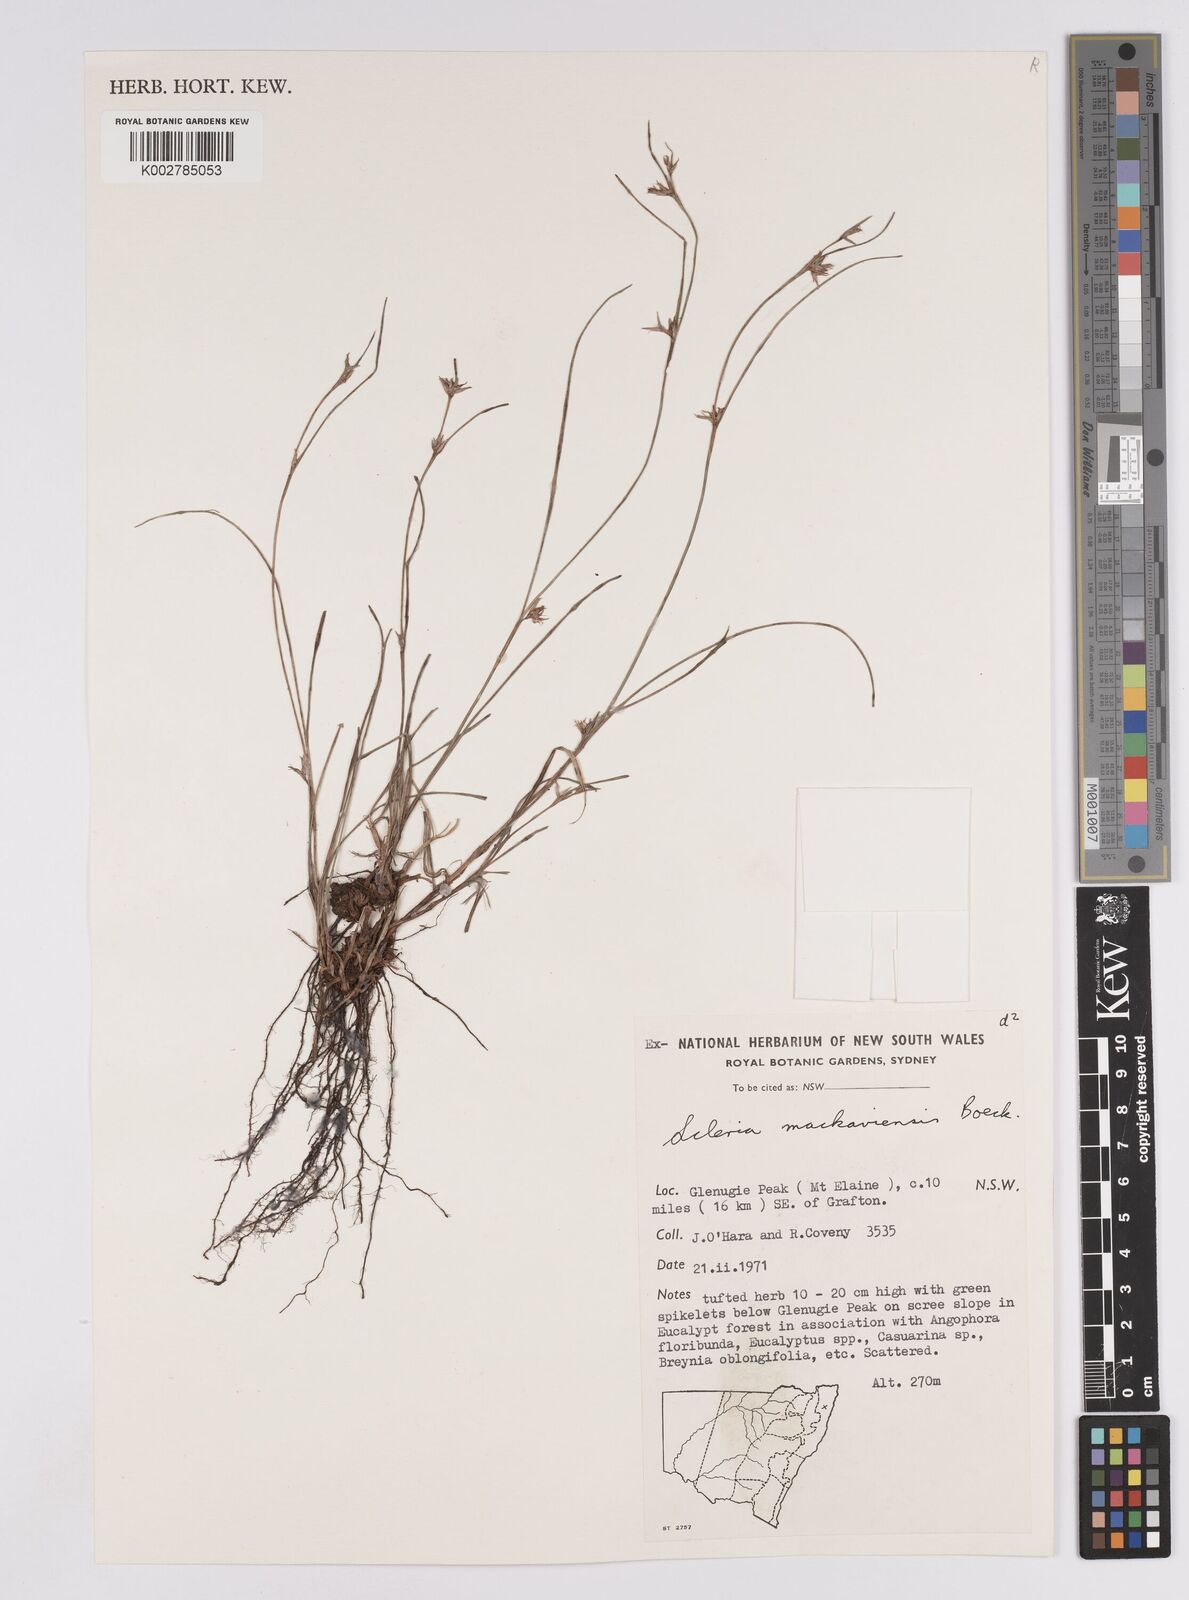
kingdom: Plantae
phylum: Tracheophyta
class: Liliopsida
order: Poales
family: Cyperaceae
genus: Scleria
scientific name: Scleria mackaviensis
